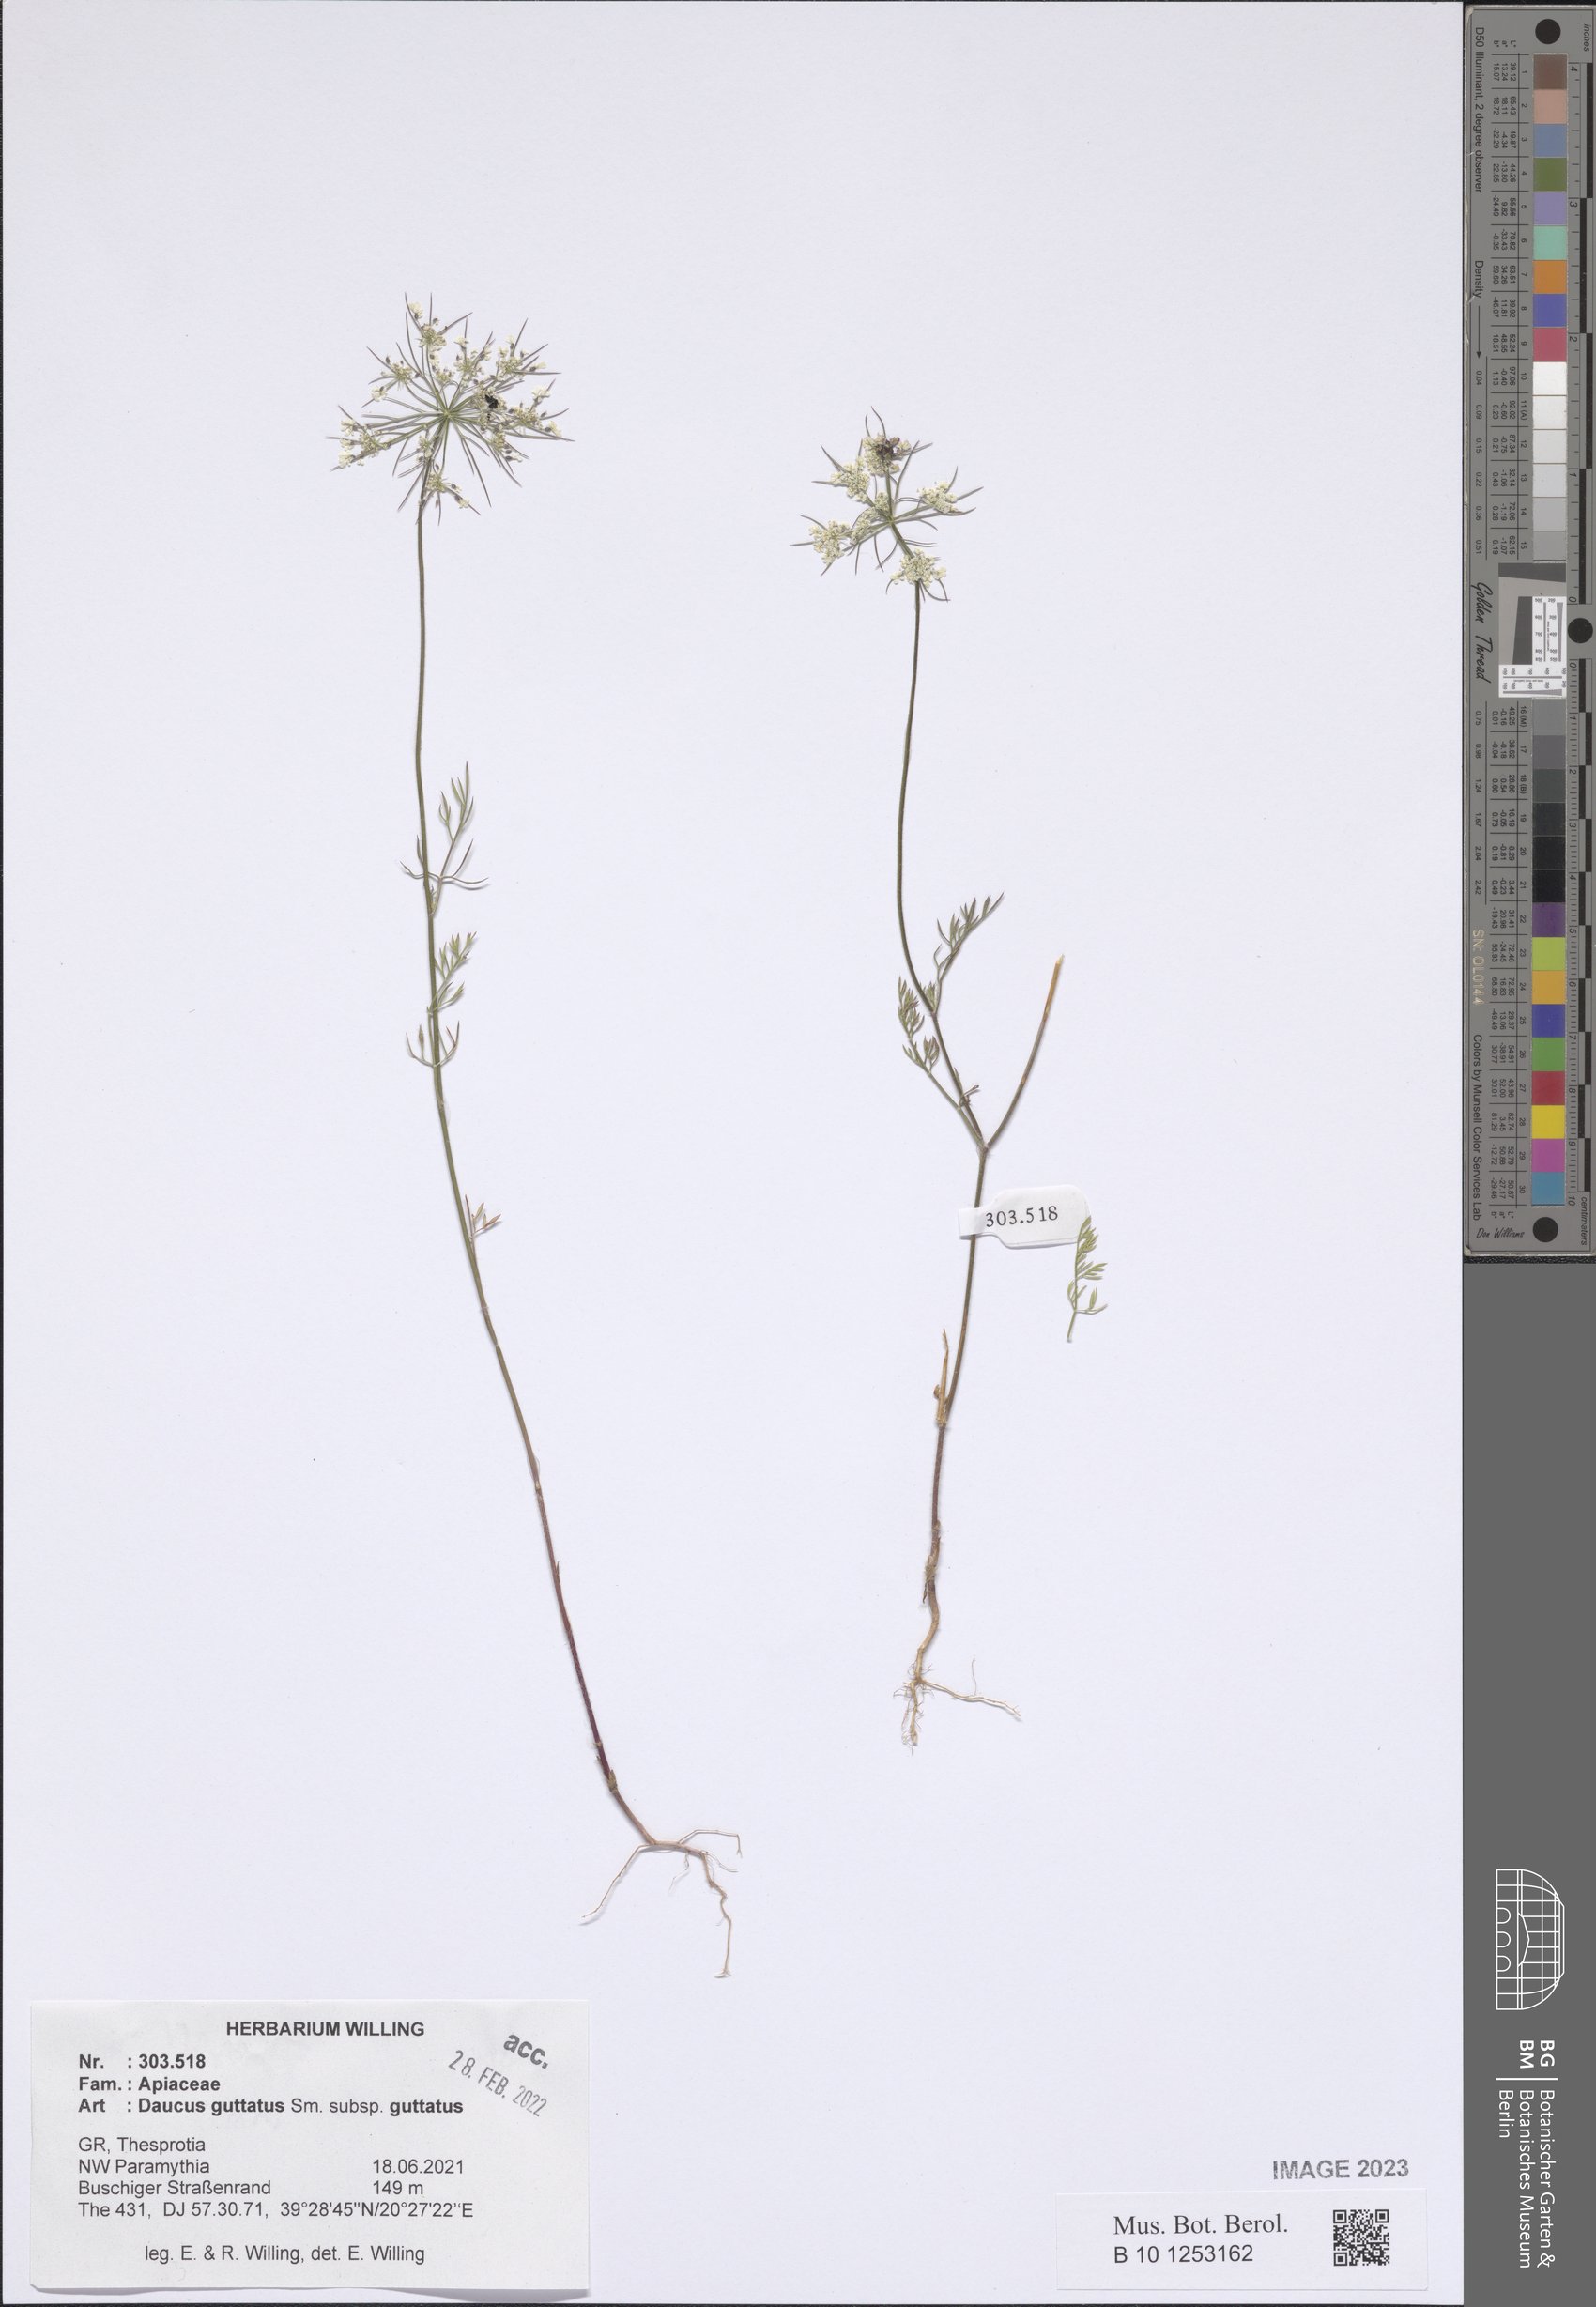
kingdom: Plantae
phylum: Tracheophyta
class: Magnoliopsida
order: Apiales
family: Apiaceae
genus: Daucus
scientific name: Daucus guttatus
